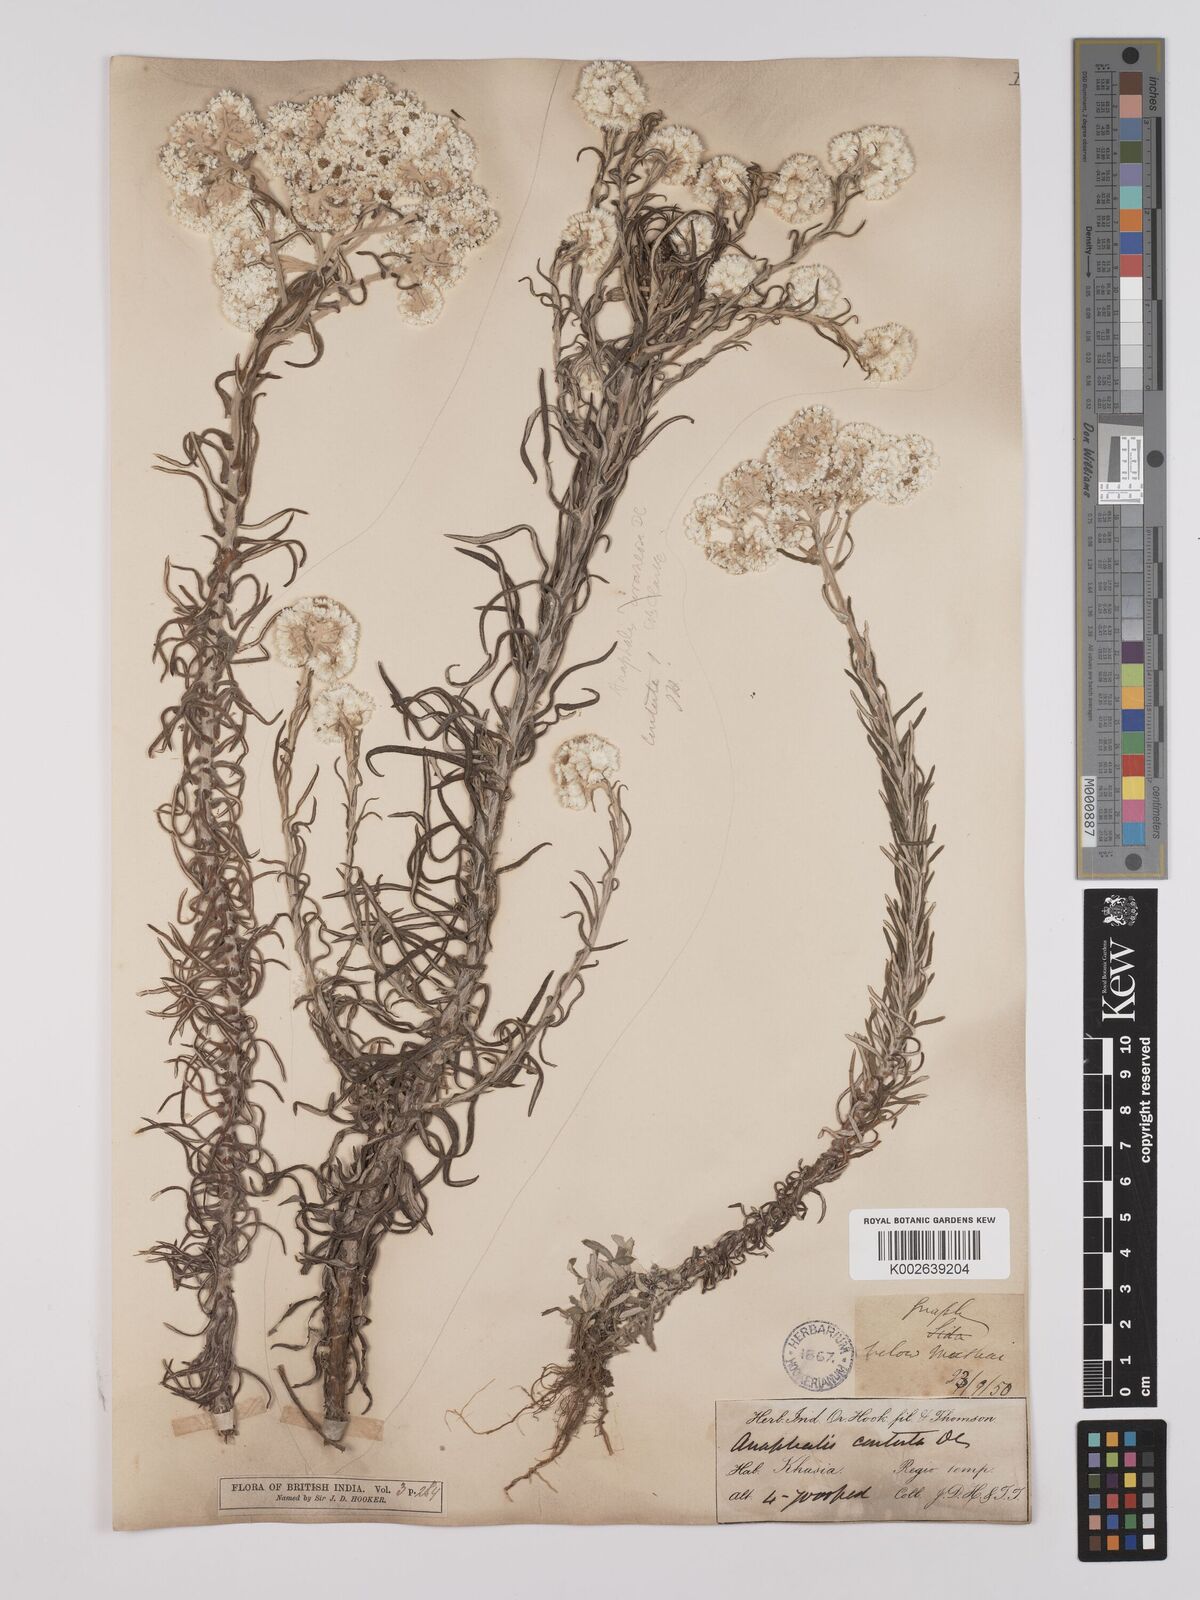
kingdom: Plantae
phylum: Tracheophyta
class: Magnoliopsida
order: Asterales
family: Asteraceae
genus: Anaphalis
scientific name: Anaphalis contorta
